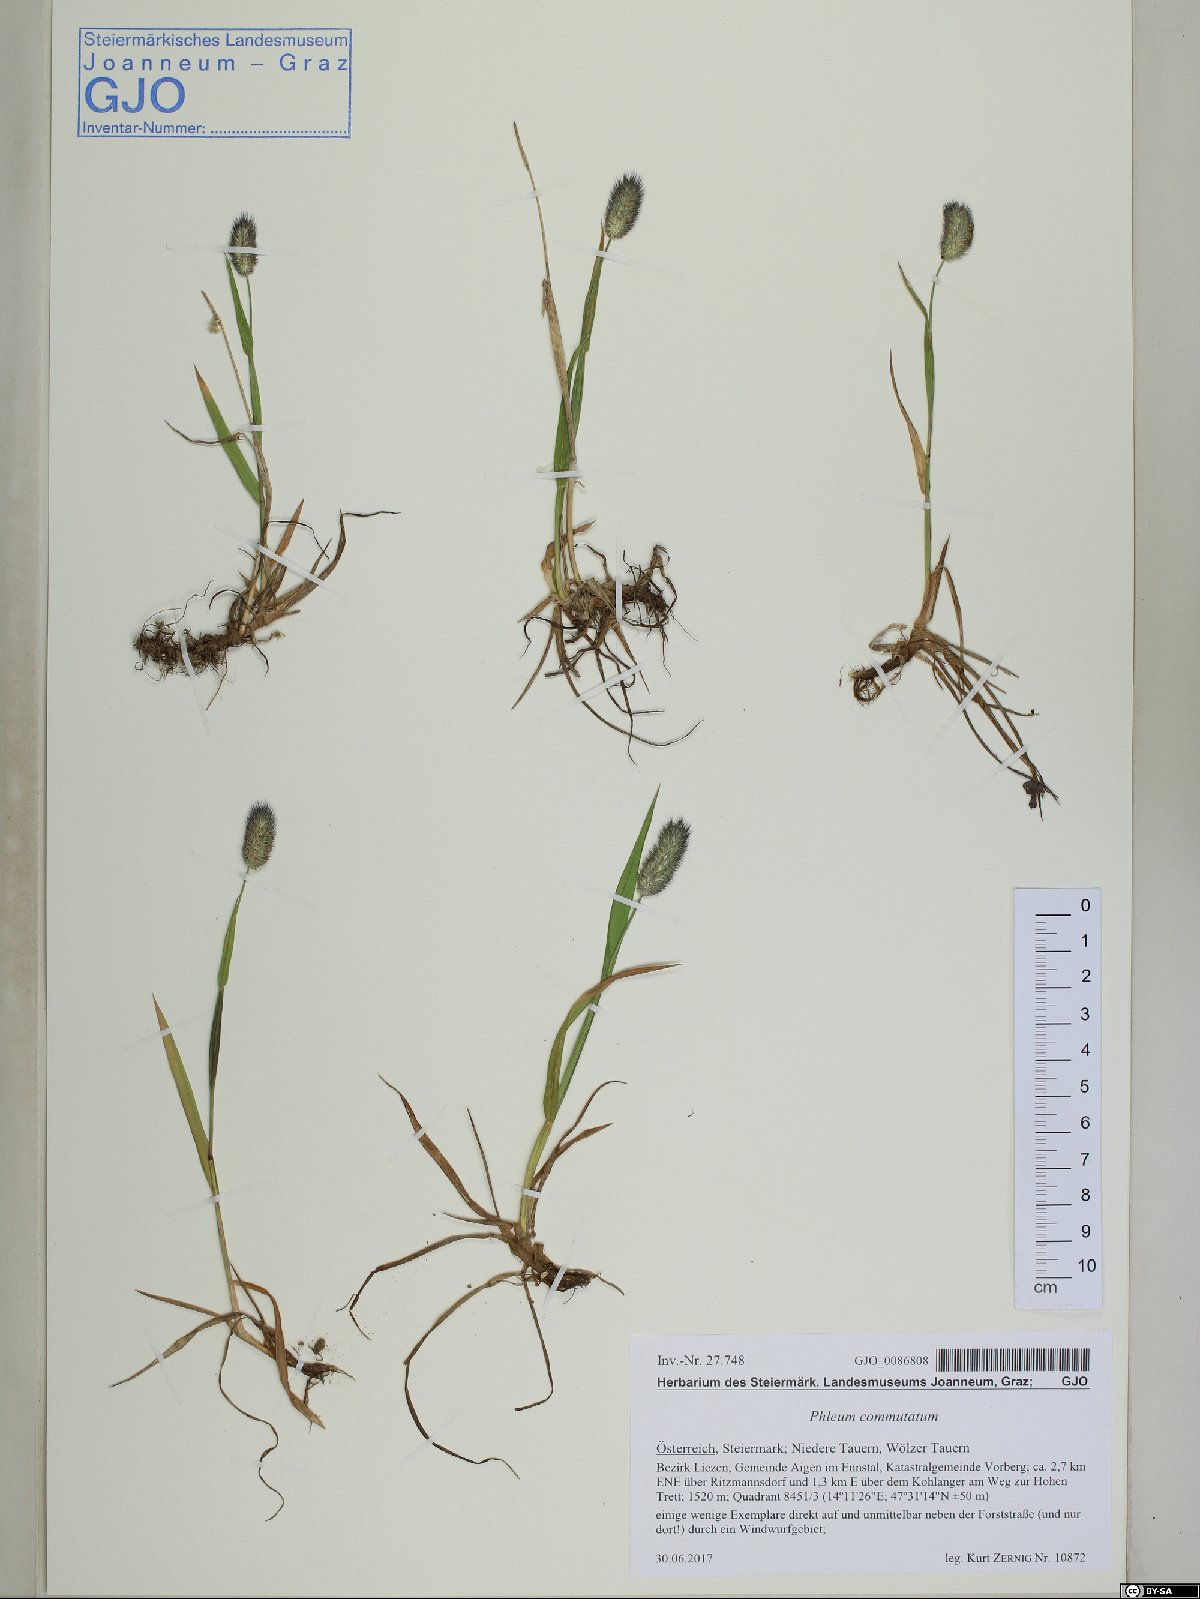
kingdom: Plantae
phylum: Tracheophyta
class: Liliopsida
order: Poales
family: Poaceae
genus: Phleum
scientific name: Phleum alpinum
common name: Alpine cat's-tail
